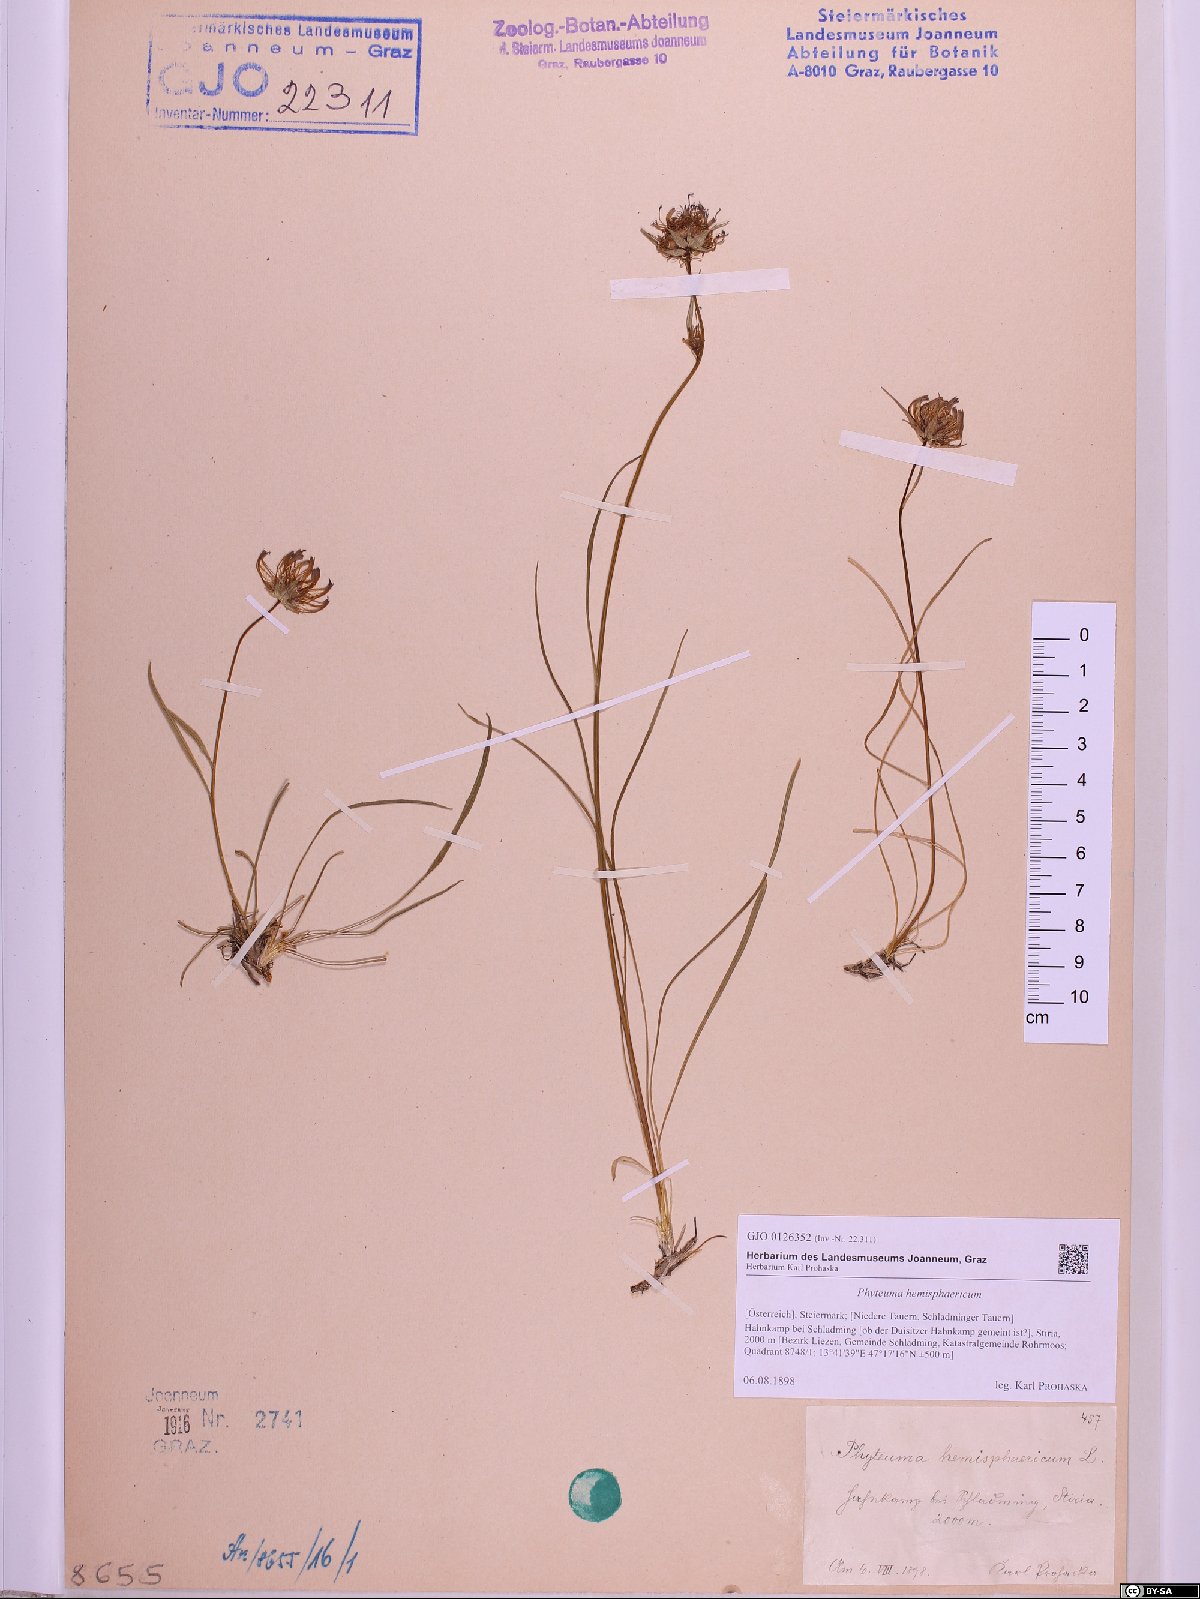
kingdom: Plantae
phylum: Tracheophyta
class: Magnoliopsida
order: Asterales
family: Campanulaceae
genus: Phyteuma
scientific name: Phyteuma hemisphaericum
